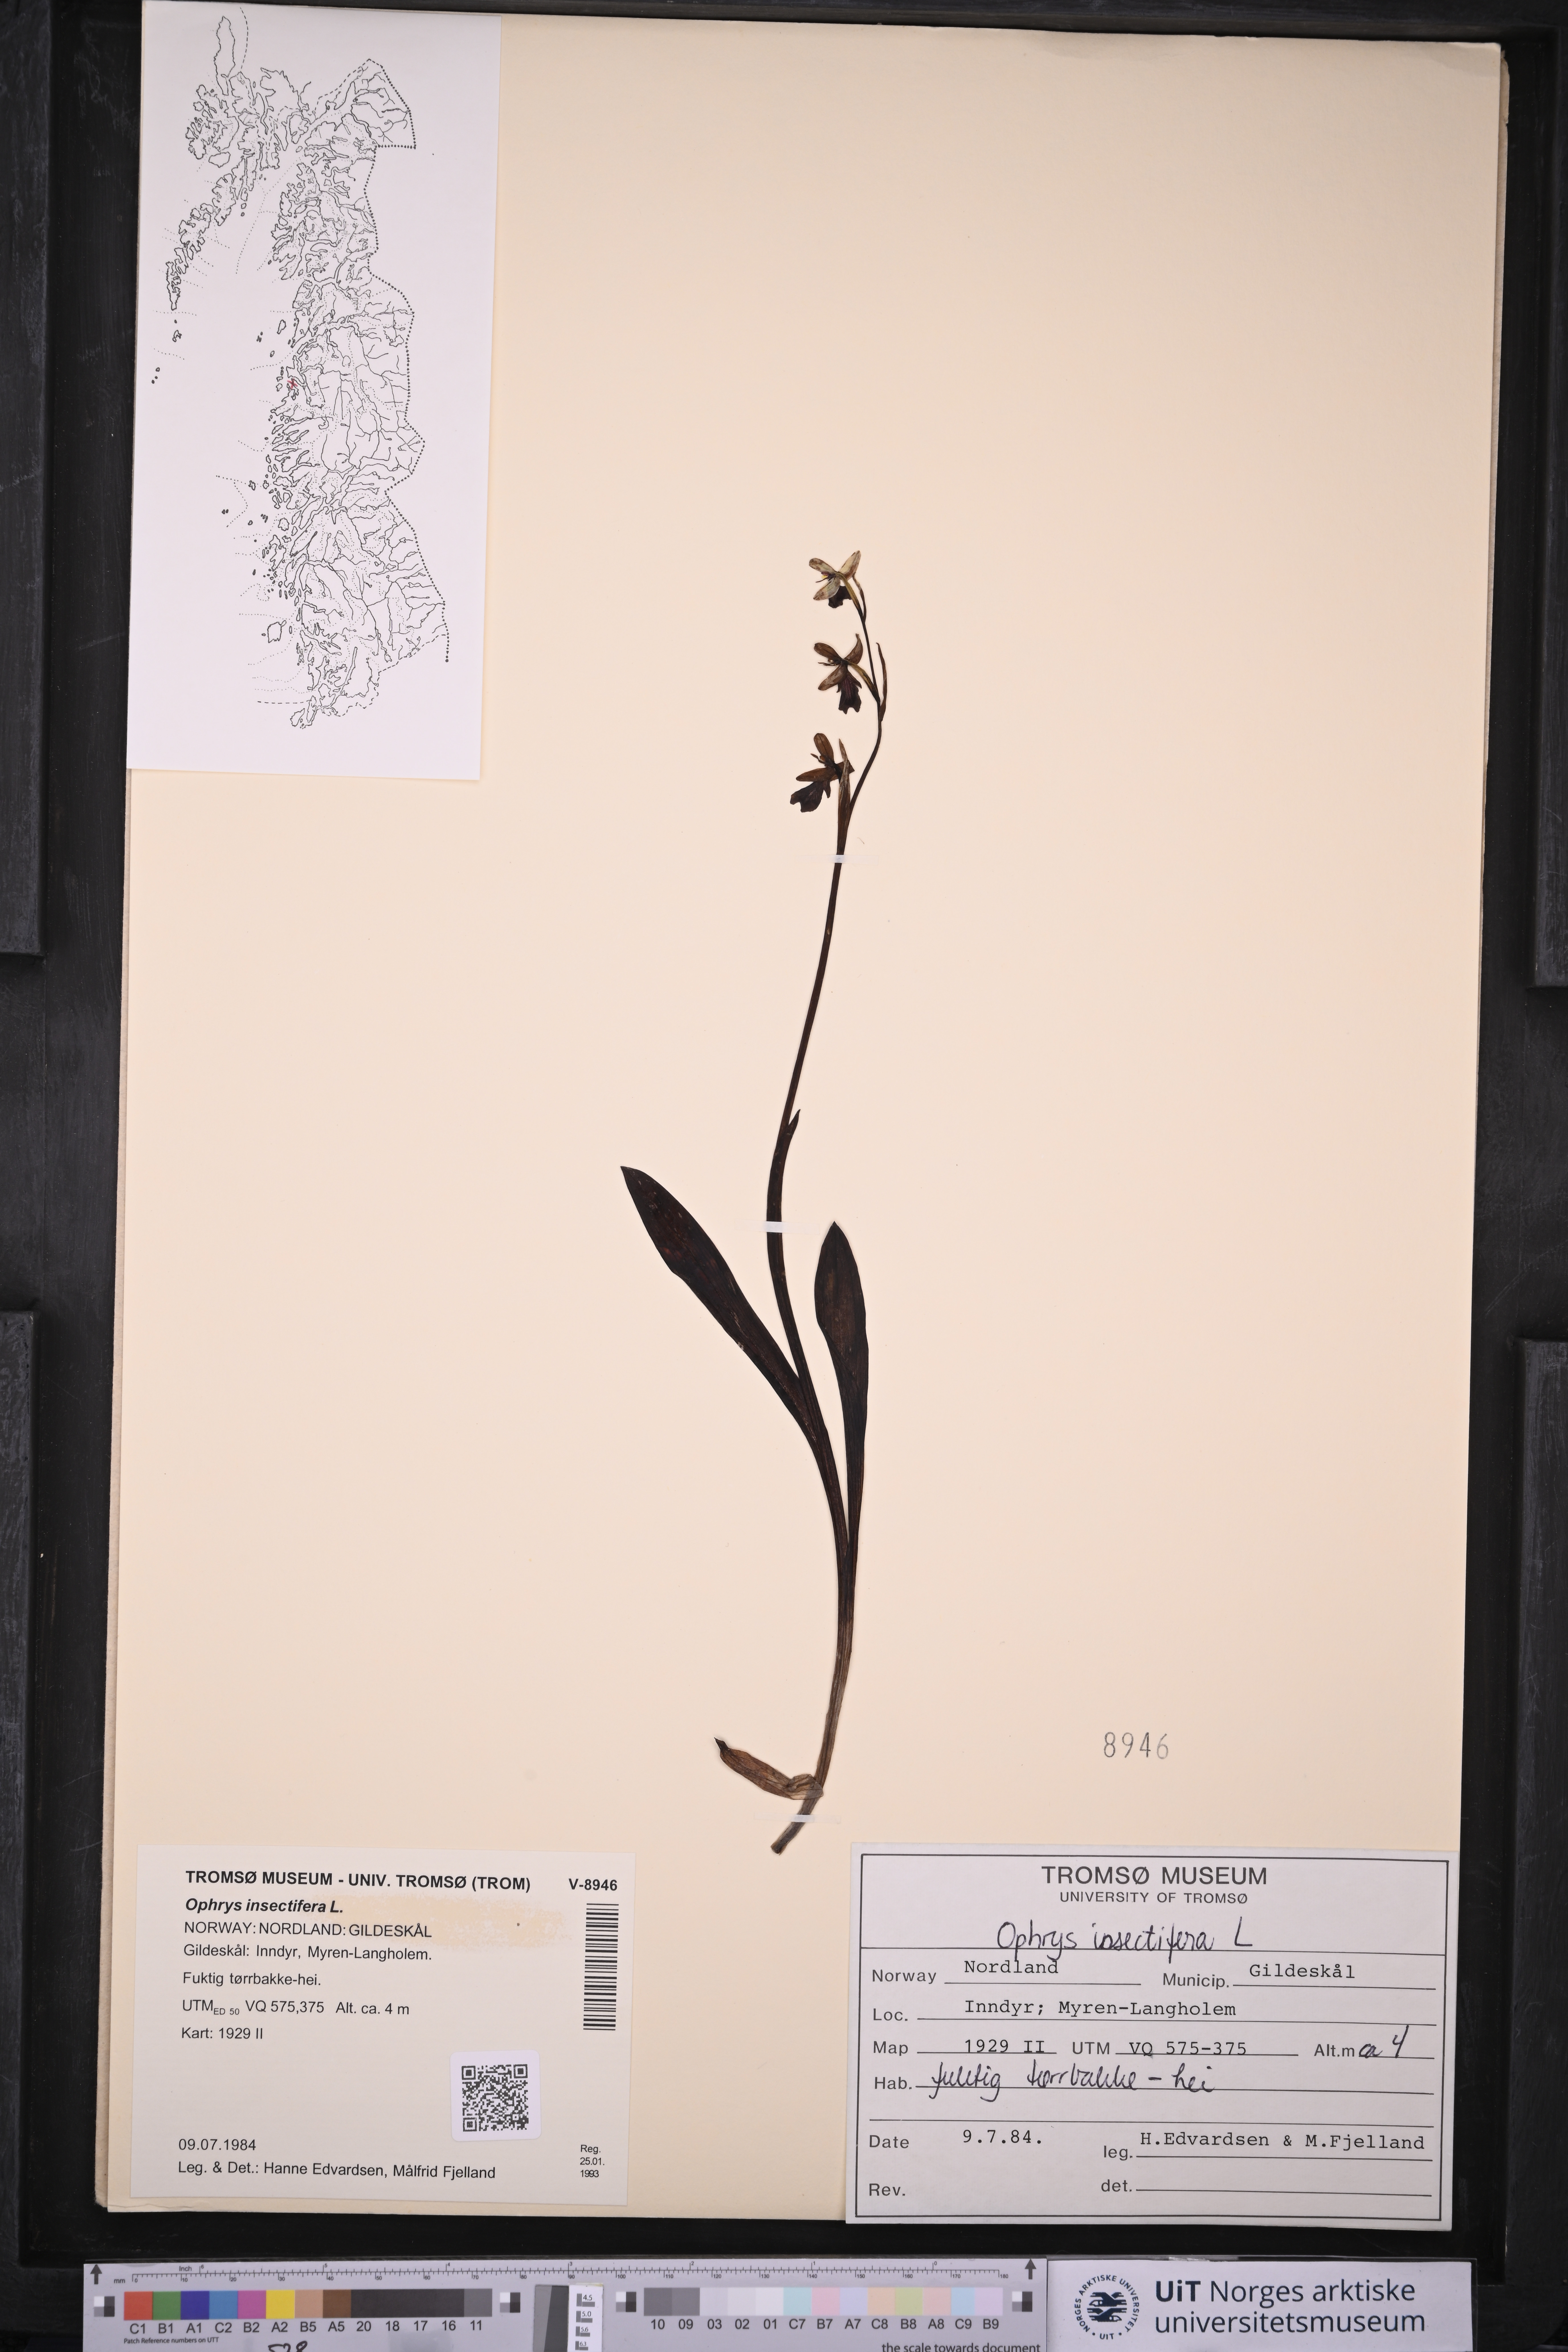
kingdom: Plantae
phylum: Tracheophyta
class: Liliopsida
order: Asparagales
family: Orchidaceae
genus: Ophrys
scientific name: Ophrys insectifera
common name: Fly orchid
